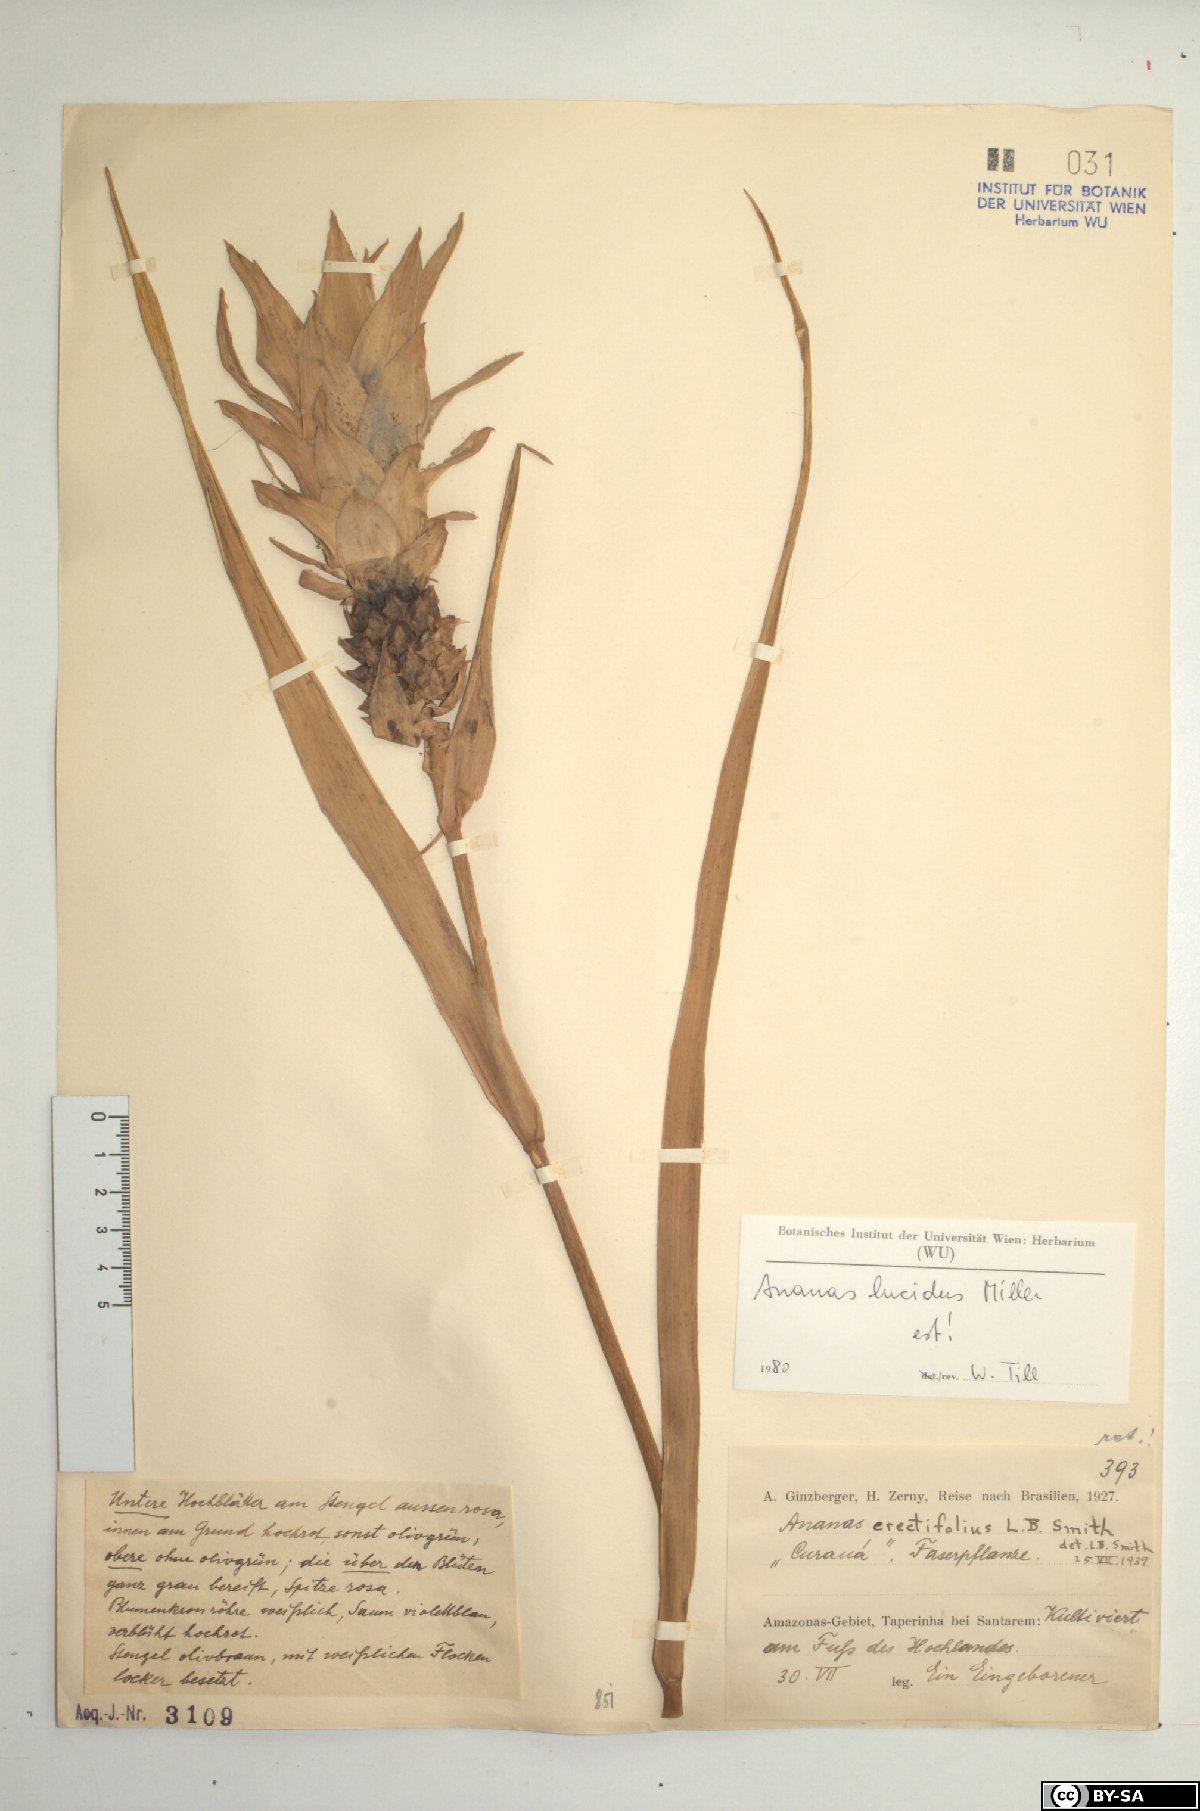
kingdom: Plantae
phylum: Tracheophyta
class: Liliopsida
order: Poales
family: Bromeliaceae
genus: Ananas
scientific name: Ananas comosus
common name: Pineapple
